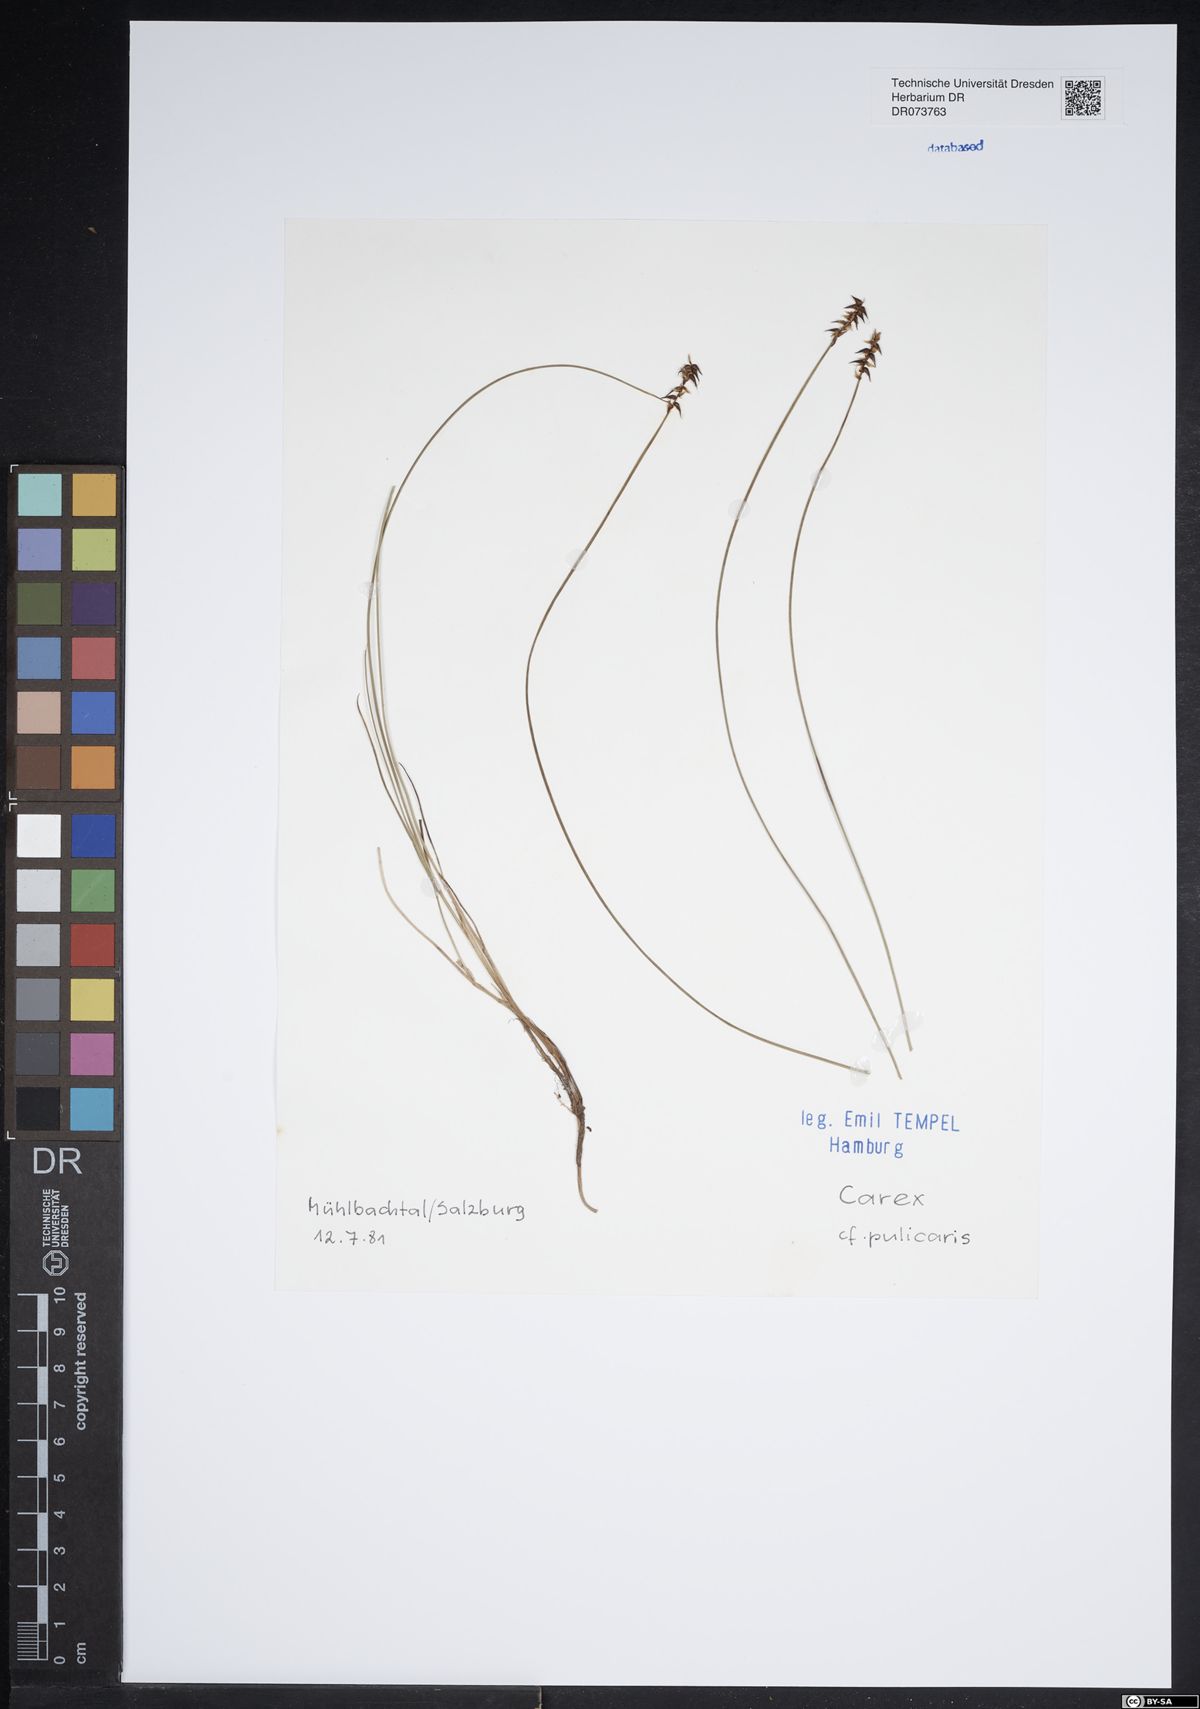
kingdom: Plantae
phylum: Tracheophyta
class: Liliopsida
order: Poales
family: Cyperaceae
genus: Carex
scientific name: Carex pulicaris
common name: Flea sedge
